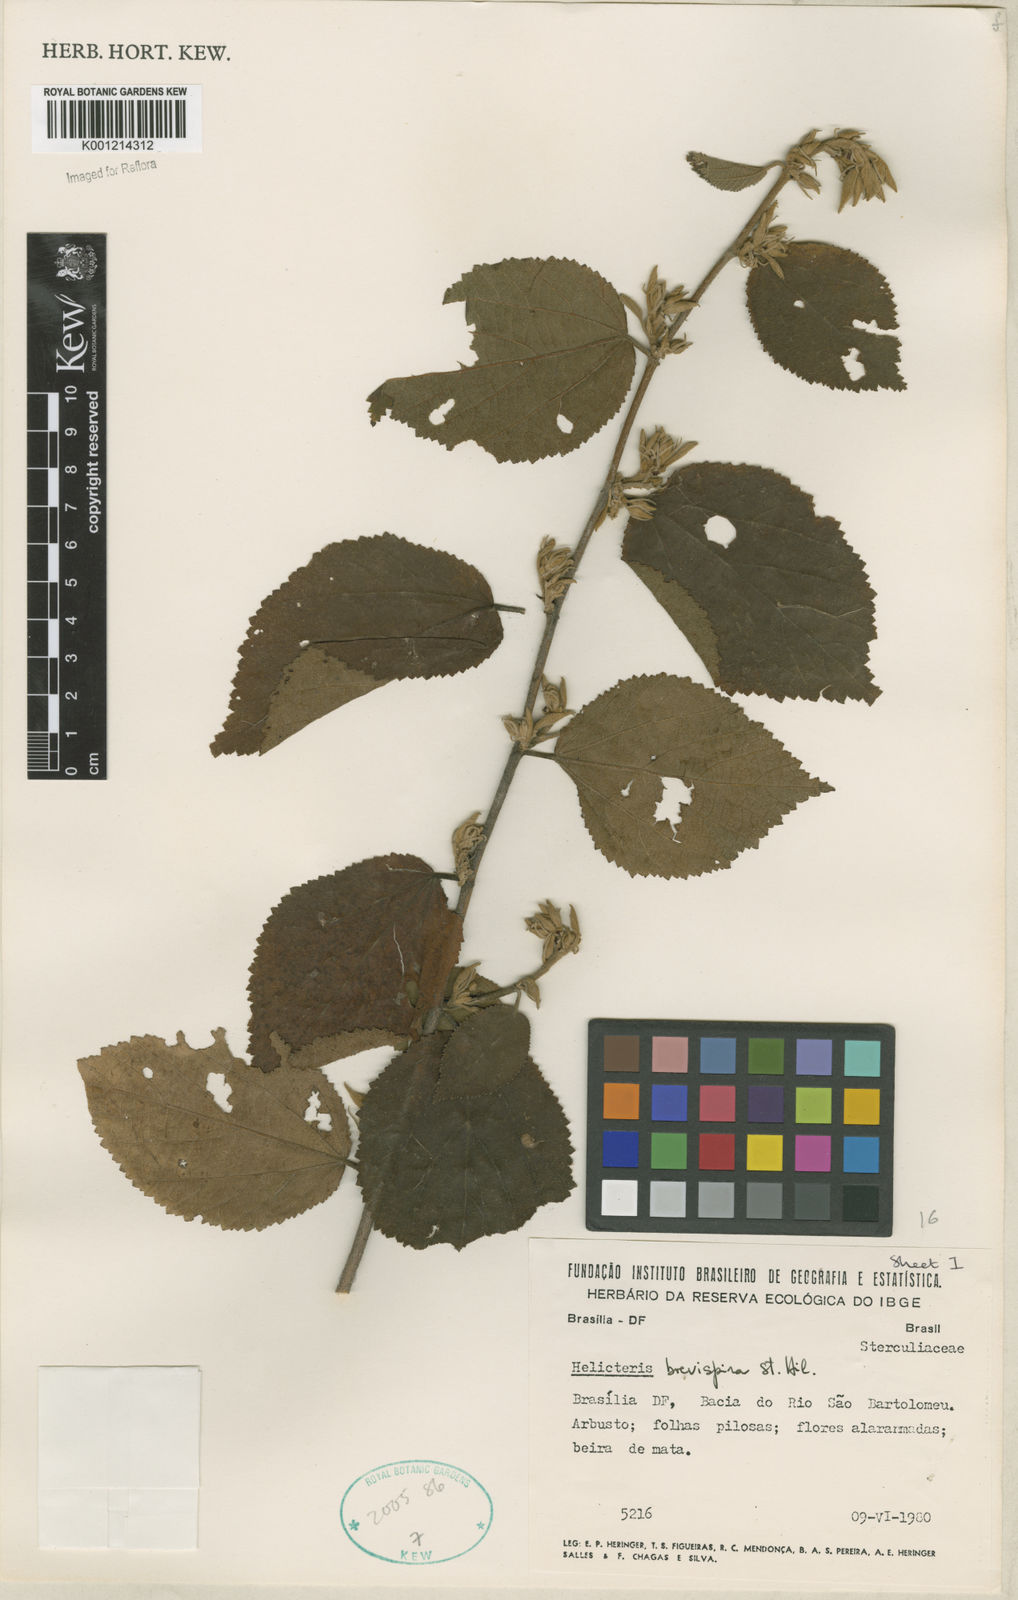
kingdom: Plantae
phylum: Tracheophyta
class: Magnoliopsida
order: Malvales
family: Malvaceae
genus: Helicteres
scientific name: Helicteres
